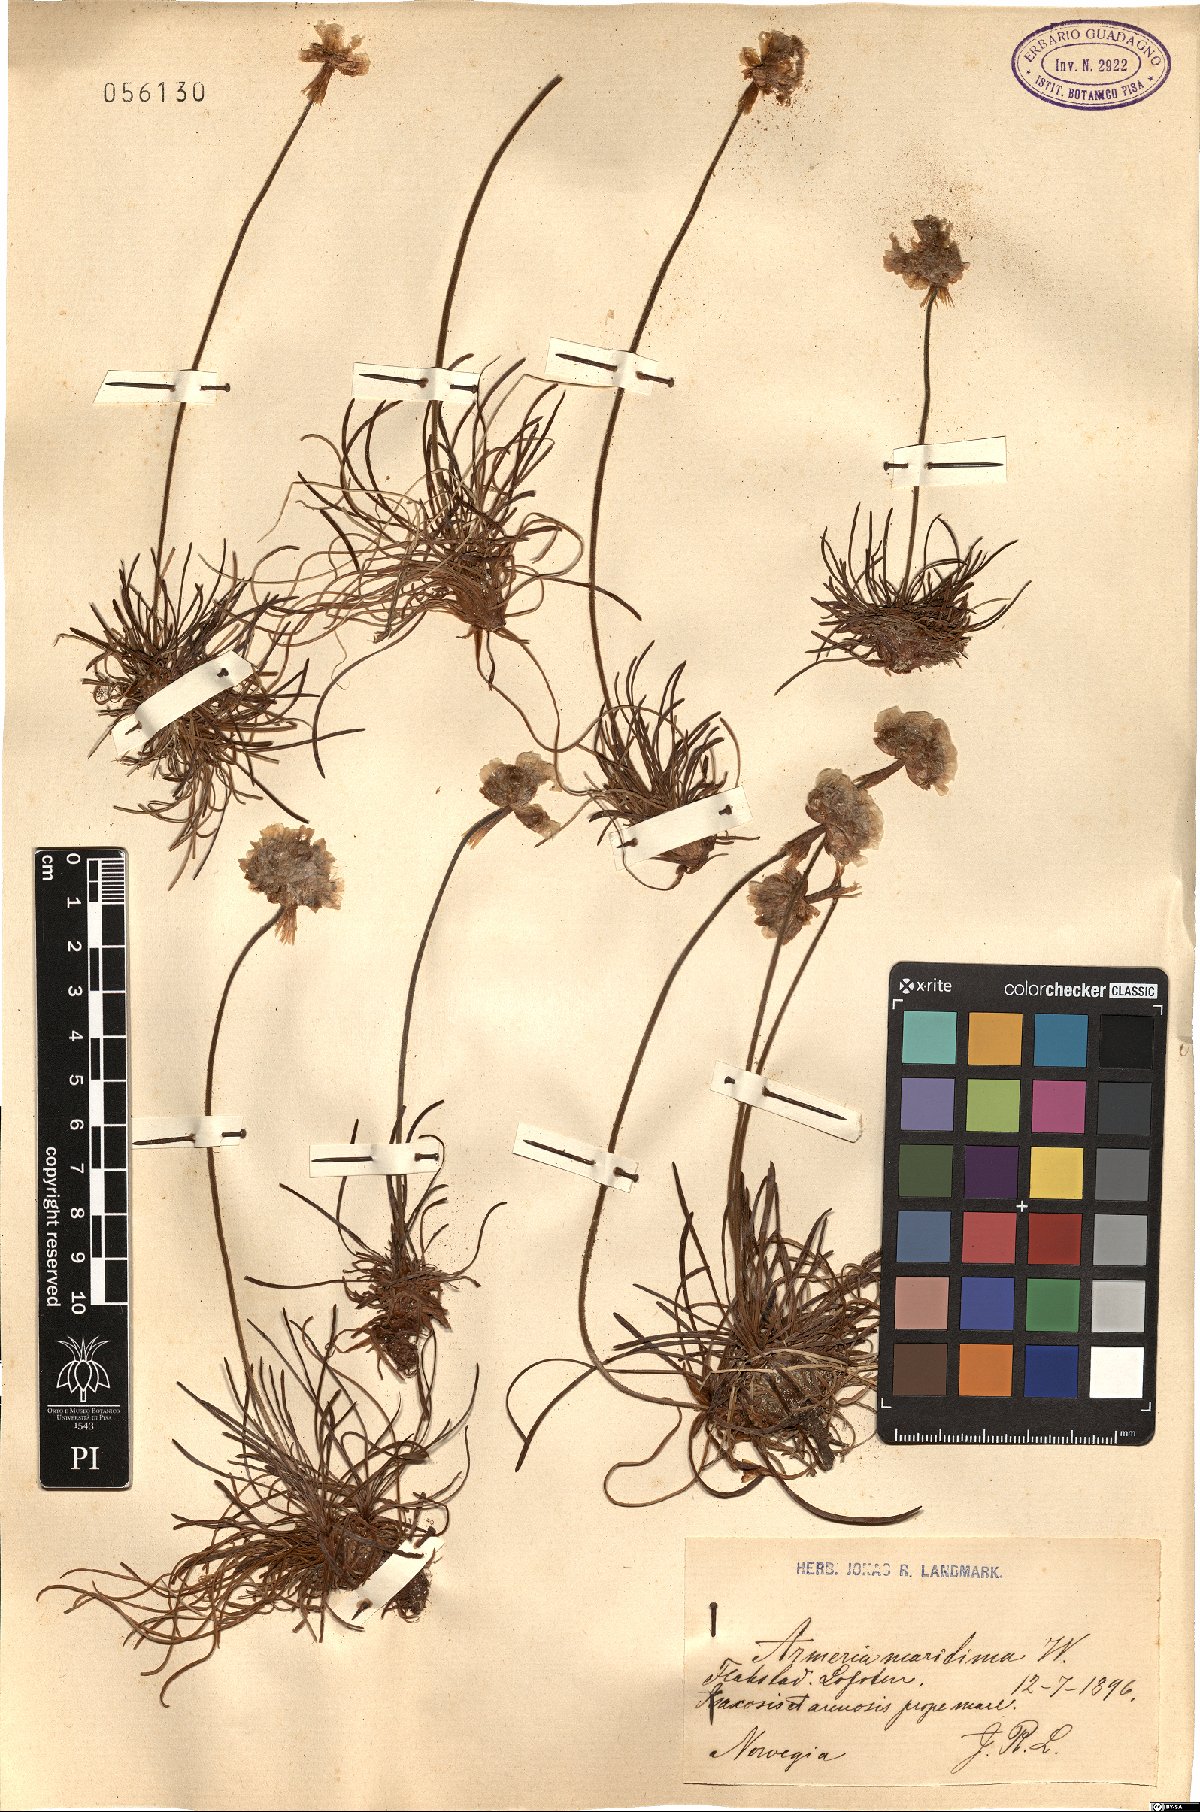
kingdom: Plantae
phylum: Tracheophyta
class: Magnoliopsida
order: Caryophyllales
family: Plumbaginaceae
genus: Armeria
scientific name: Armeria maritima
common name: Thrift
